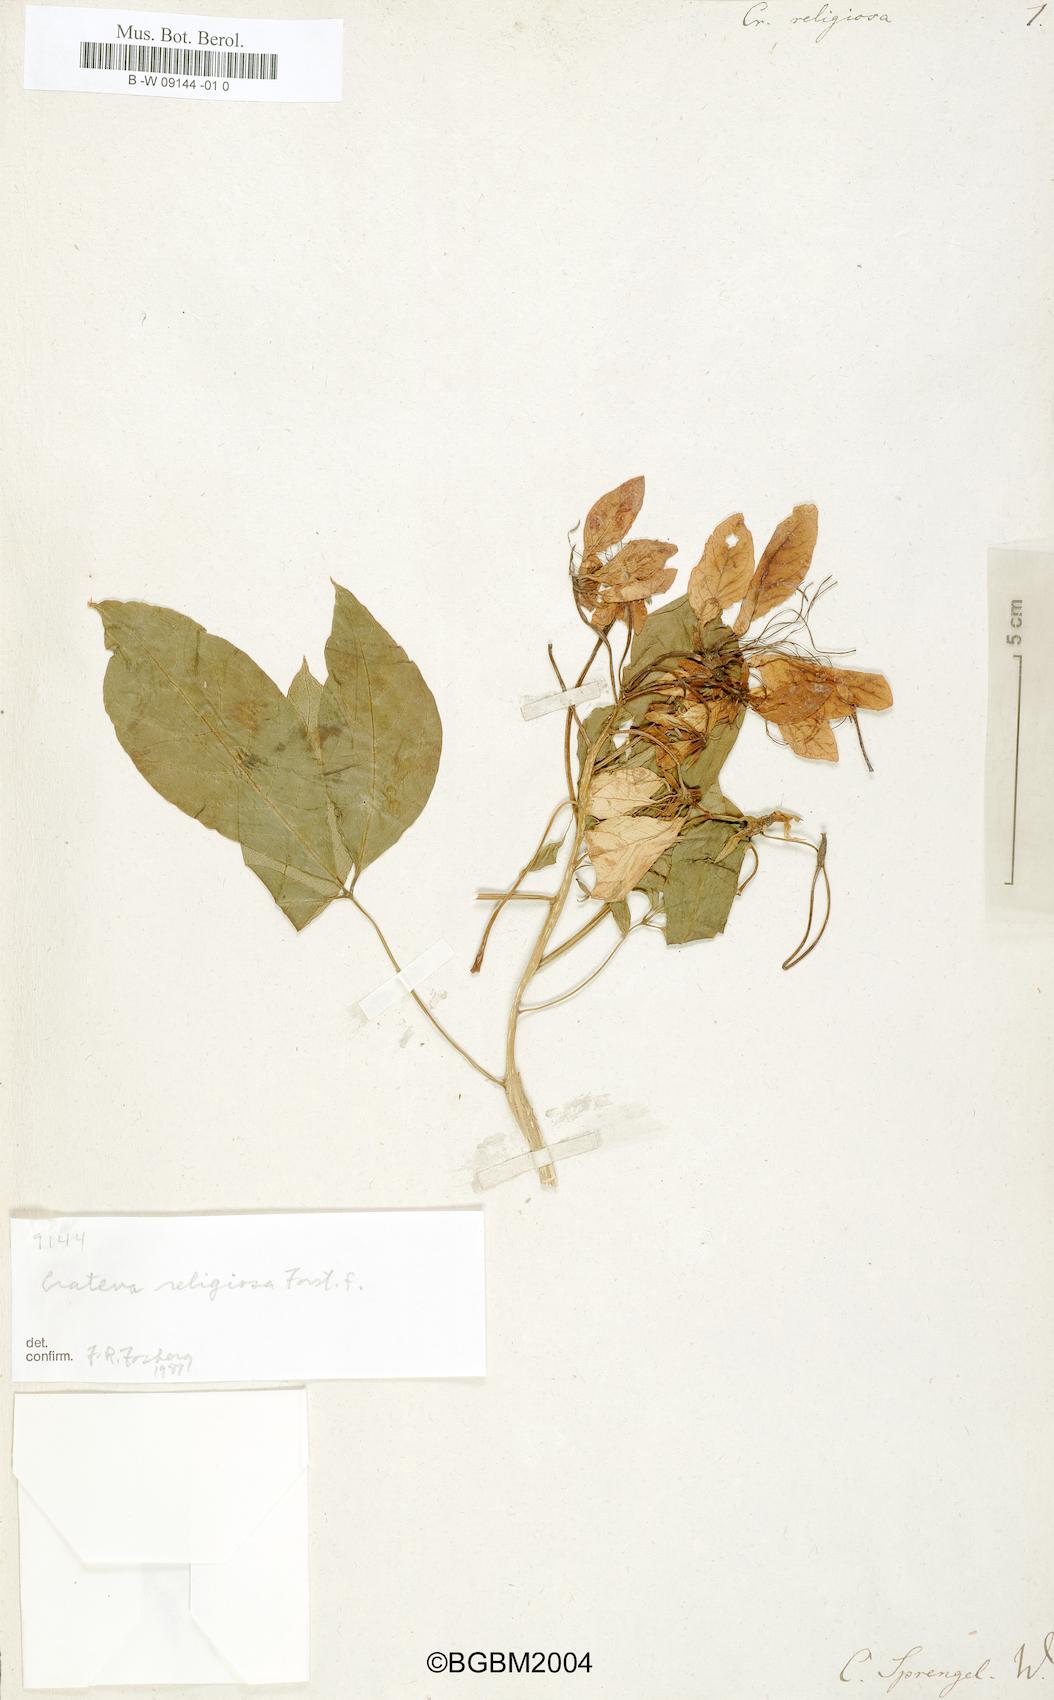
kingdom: Plantae
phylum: Tracheophyta
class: Magnoliopsida
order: Brassicales
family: Capparaceae
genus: Crateva
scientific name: Crateva religiosa
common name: March dalur
